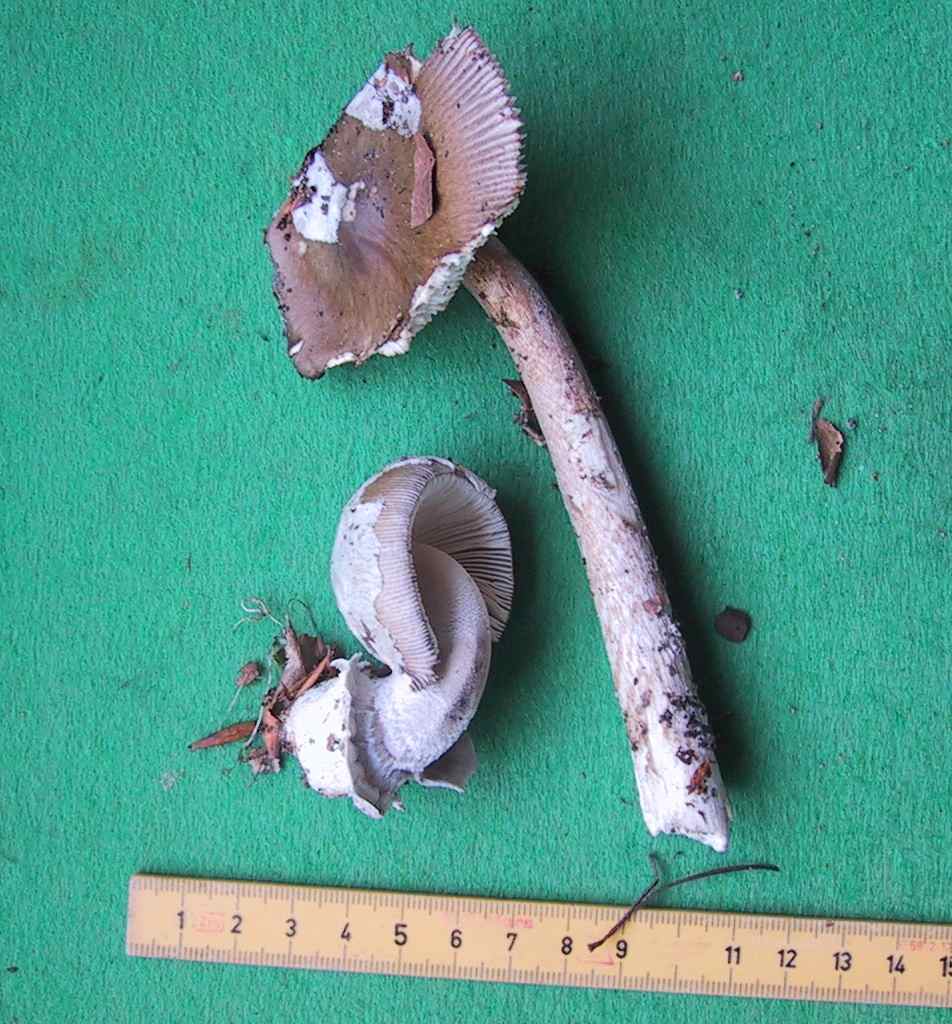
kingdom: Fungi
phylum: Basidiomycota
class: Agaricomycetes
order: Agaricales
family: Amanitaceae
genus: Amanita
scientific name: Amanita submembranacea
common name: gråspættet kam-fluesvamp
